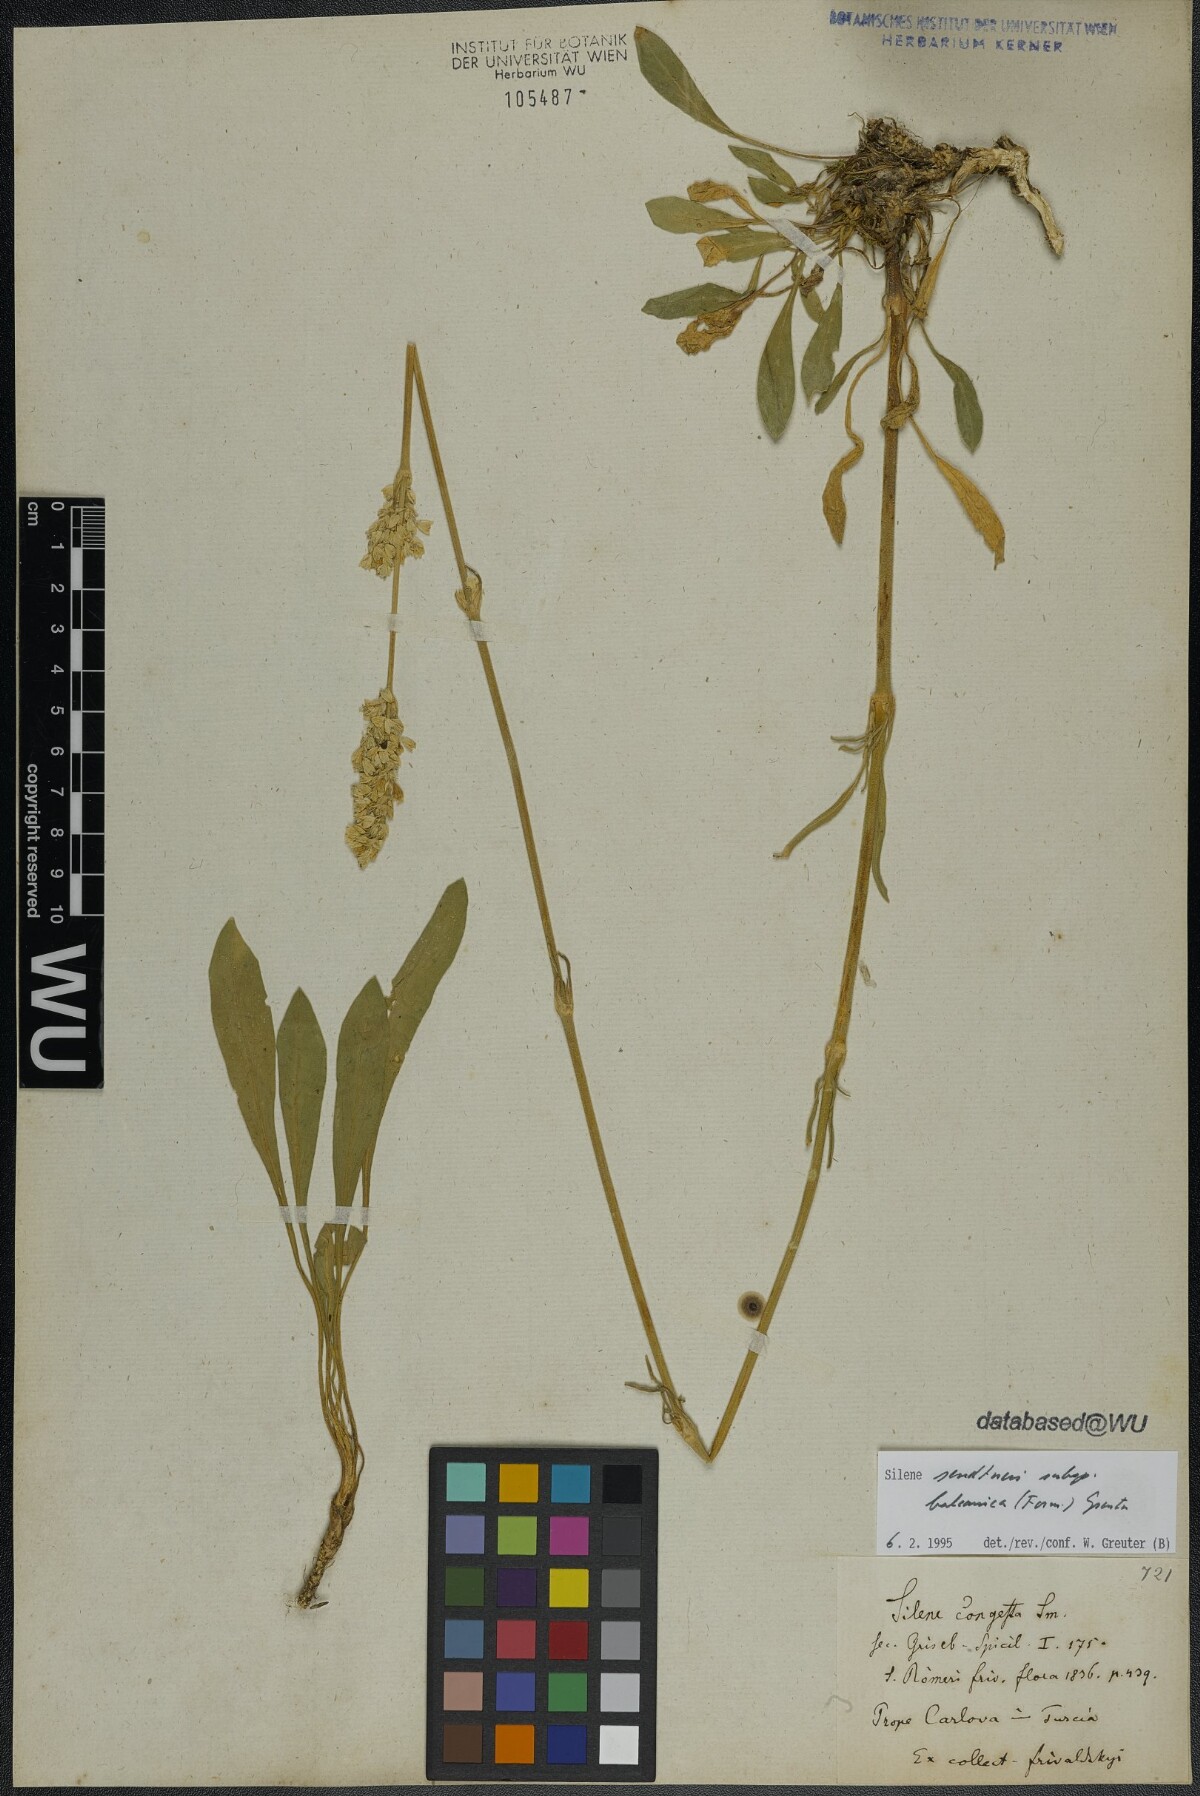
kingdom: Plantae
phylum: Tracheophyta
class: Magnoliopsida
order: Caryophyllales
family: Caryophyllaceae
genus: Silene
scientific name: Silene sendtneri
